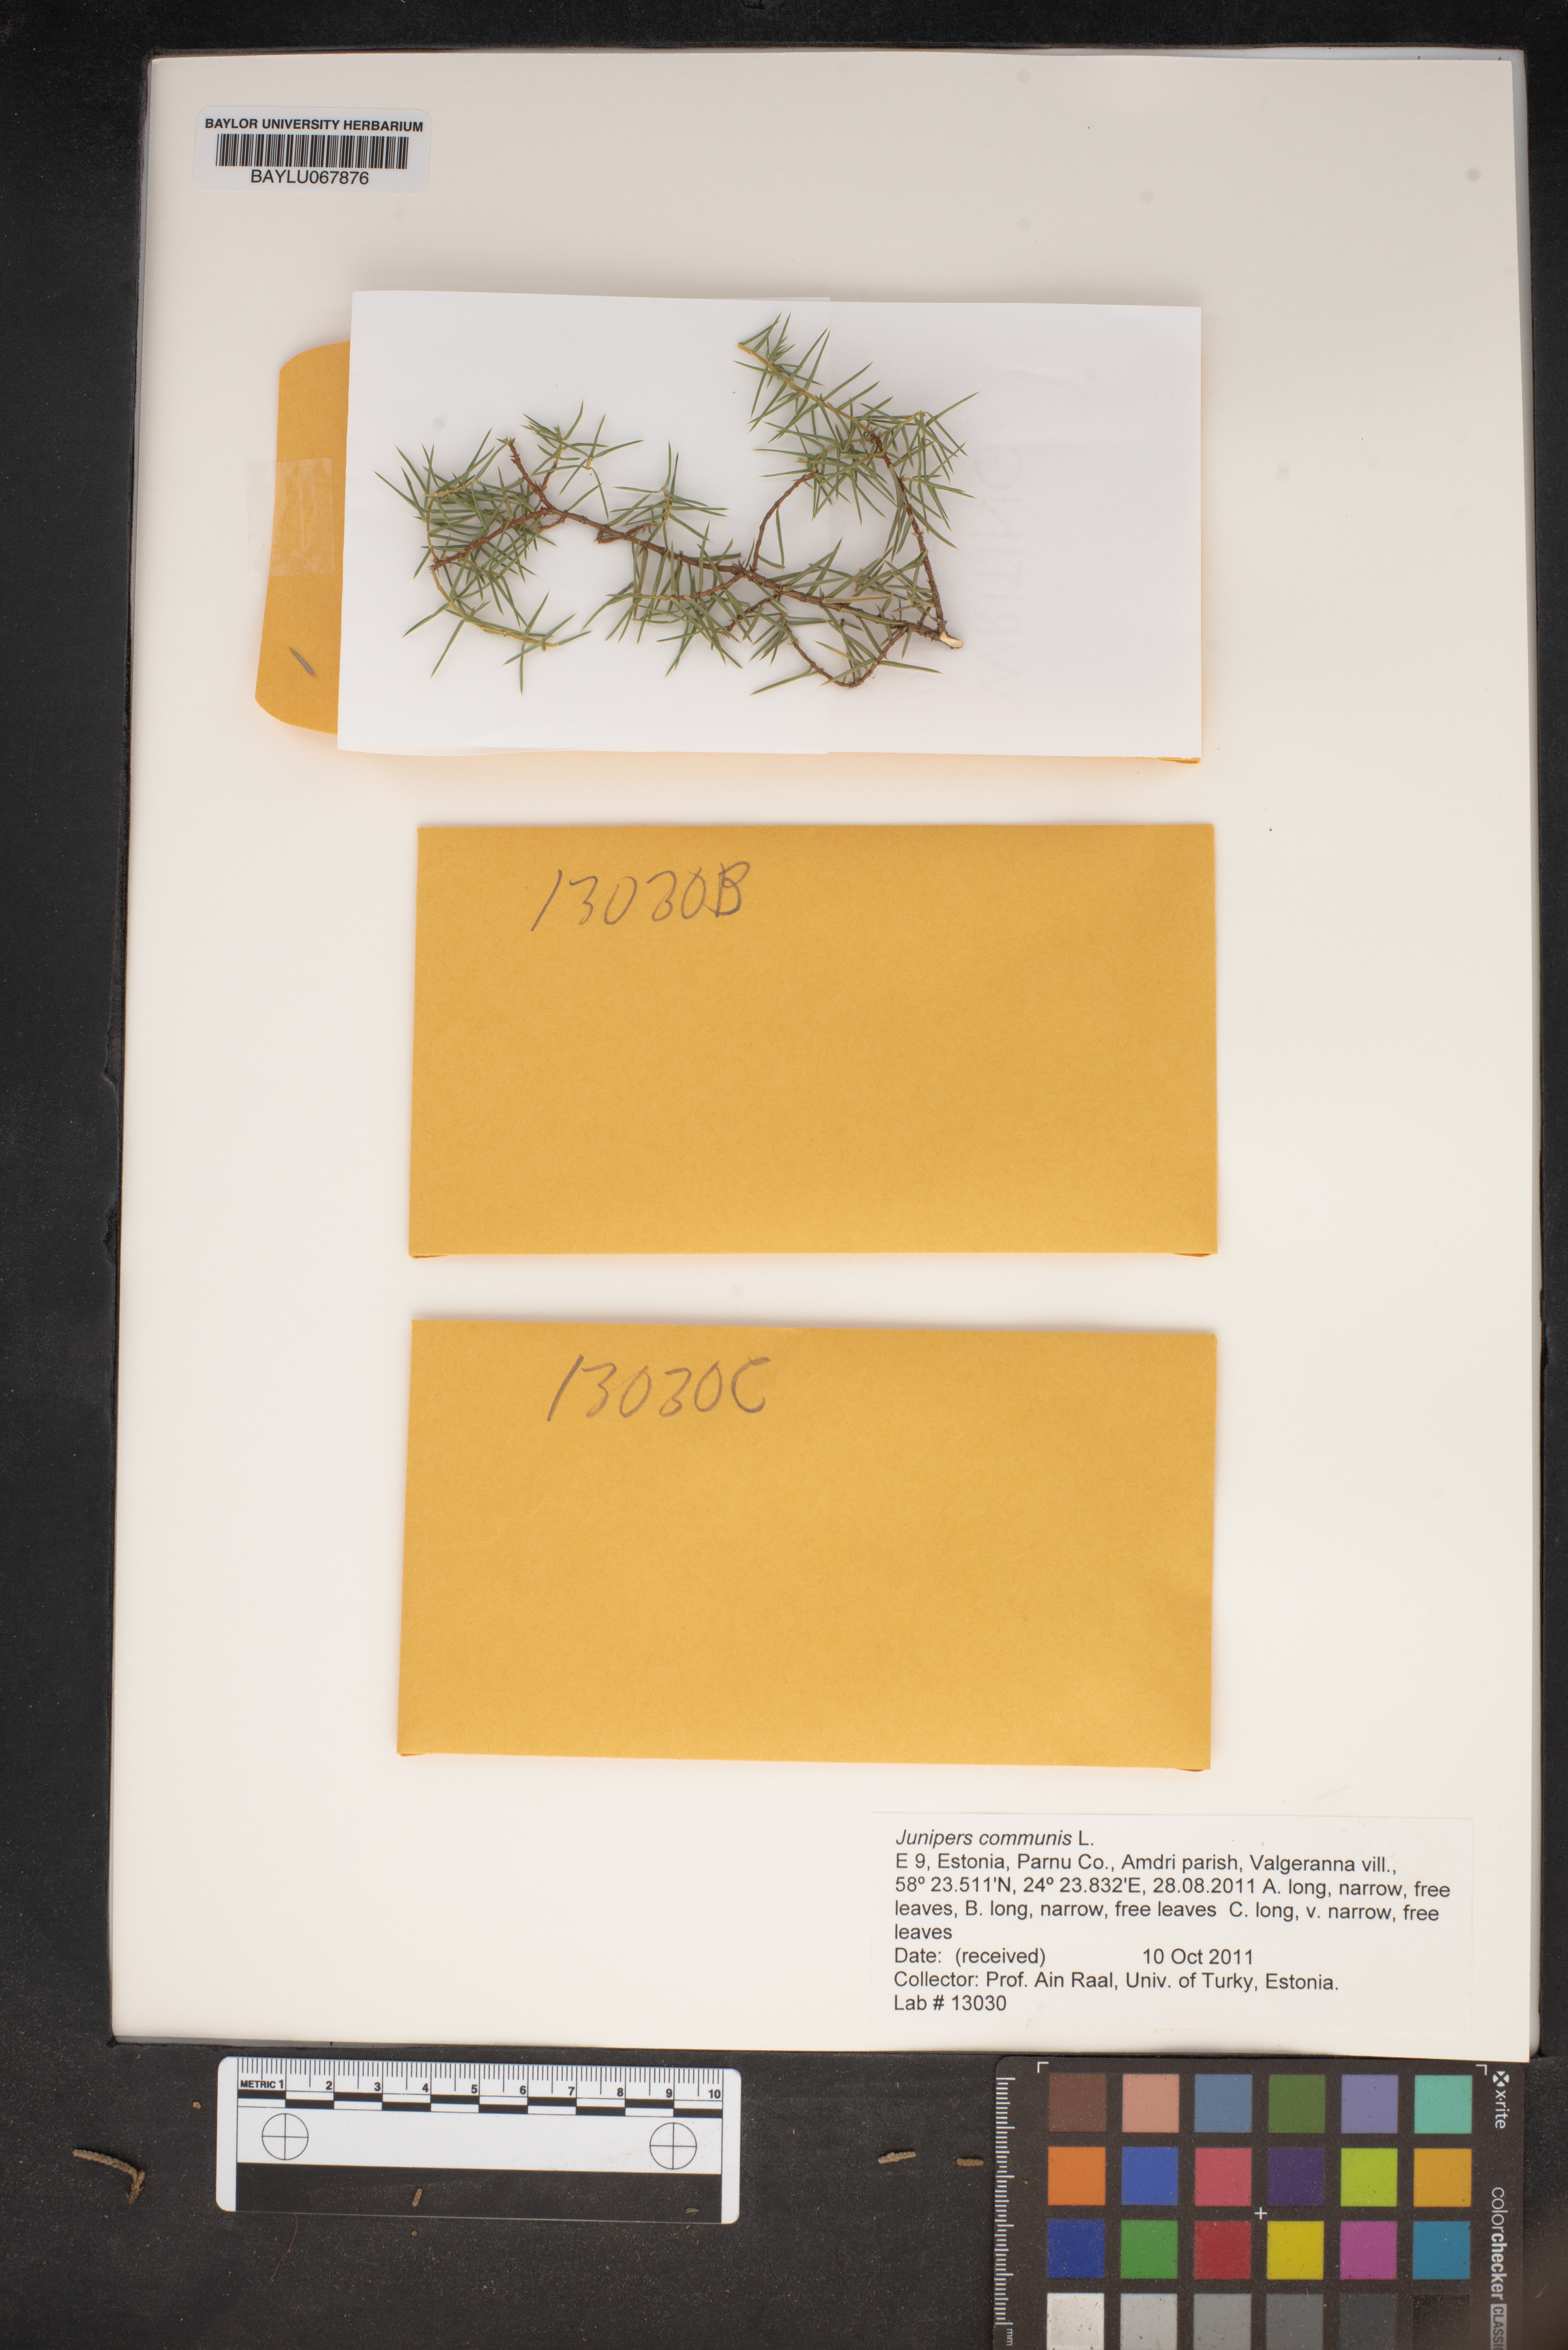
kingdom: Plantae
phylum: Tracheophyta
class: Pinopsida
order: Pinales
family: Cupressaceae
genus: Juniperus
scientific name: Juniperus communis
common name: Common juniper
